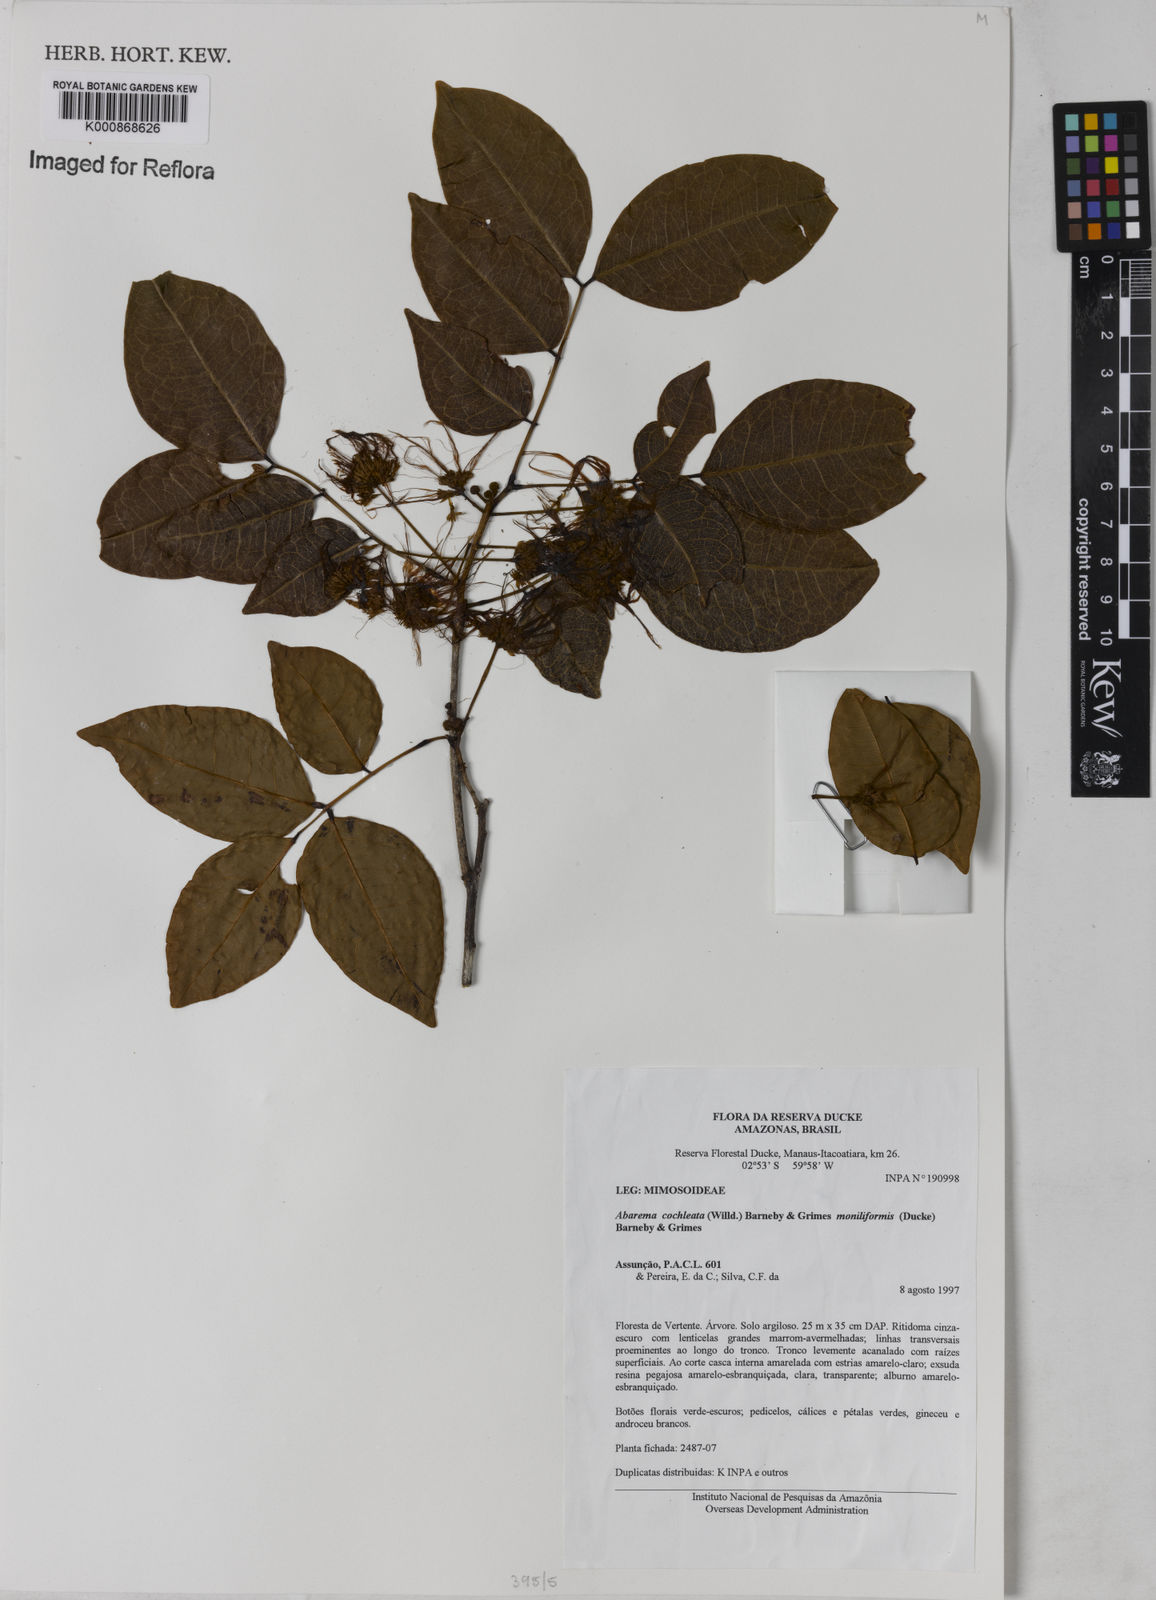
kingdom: Plantae
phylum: Tracheophyta
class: Magnoliopsida
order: Fabales
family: Fabaceae
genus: Jupunba
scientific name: Jupunba cochleata
